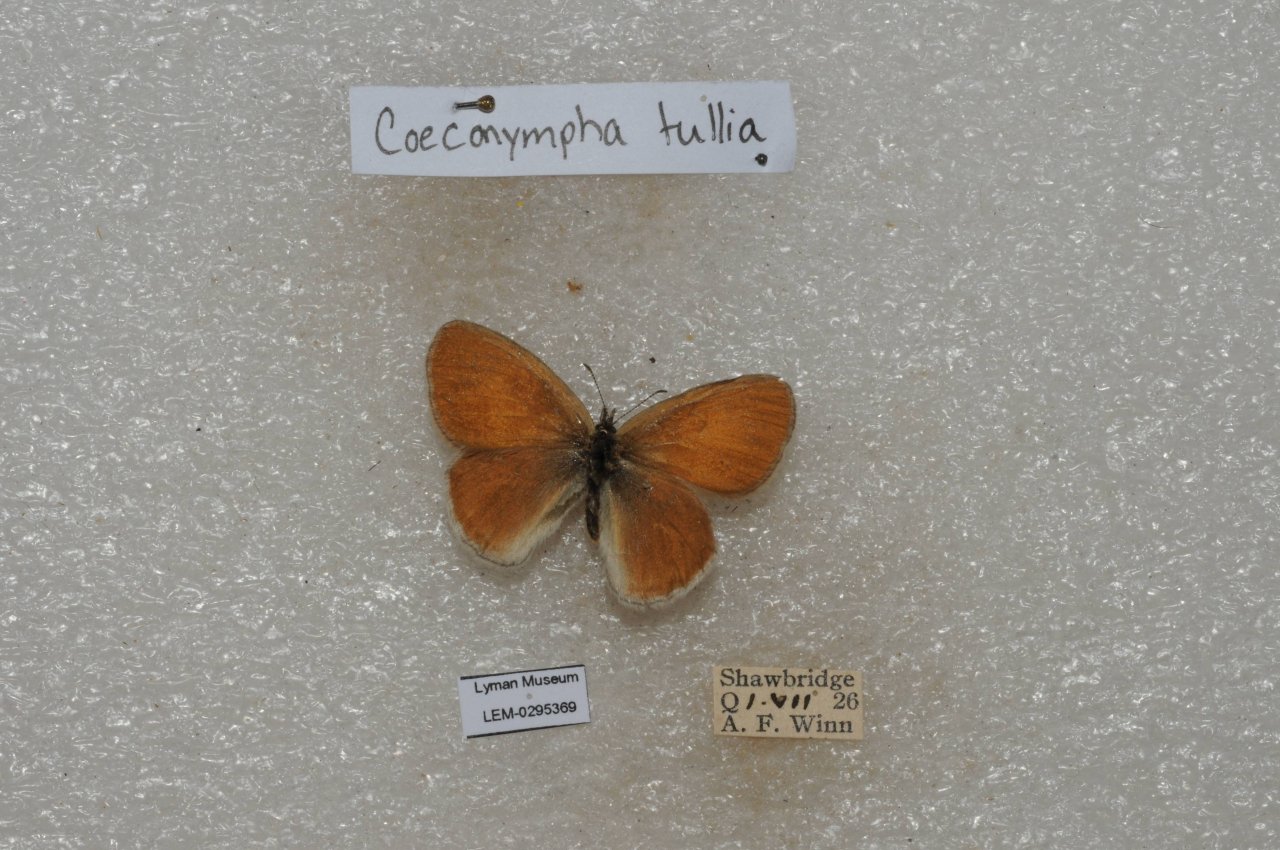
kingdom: Animalia
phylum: Arthropoda
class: Insecta
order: Lepidoptera
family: Nymphalidae
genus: Coenonympha
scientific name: Coenonympha tullia
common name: Large Heath
